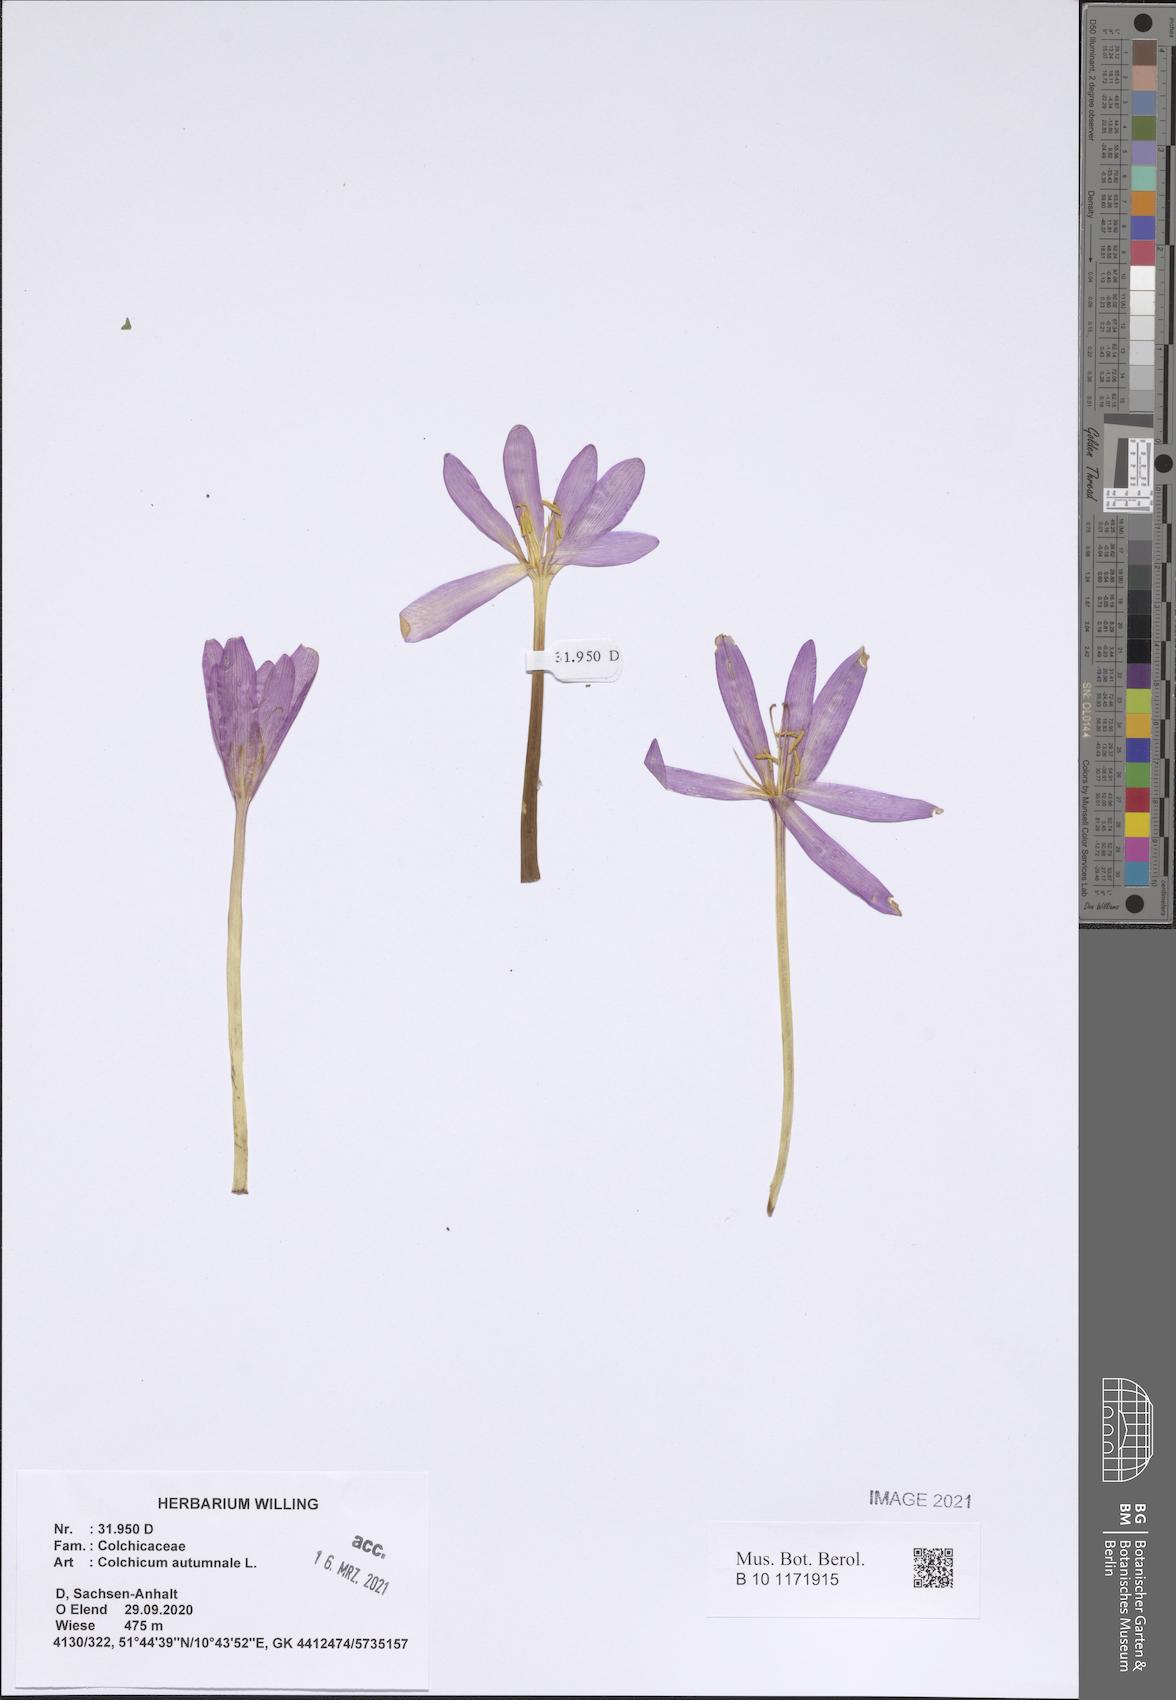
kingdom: Plantae
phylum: Tracheophyta
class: Liliopsida
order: Liliales
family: Colchicaceae
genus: Colchicum
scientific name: Colchicum autumnale
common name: Autumn crocus
